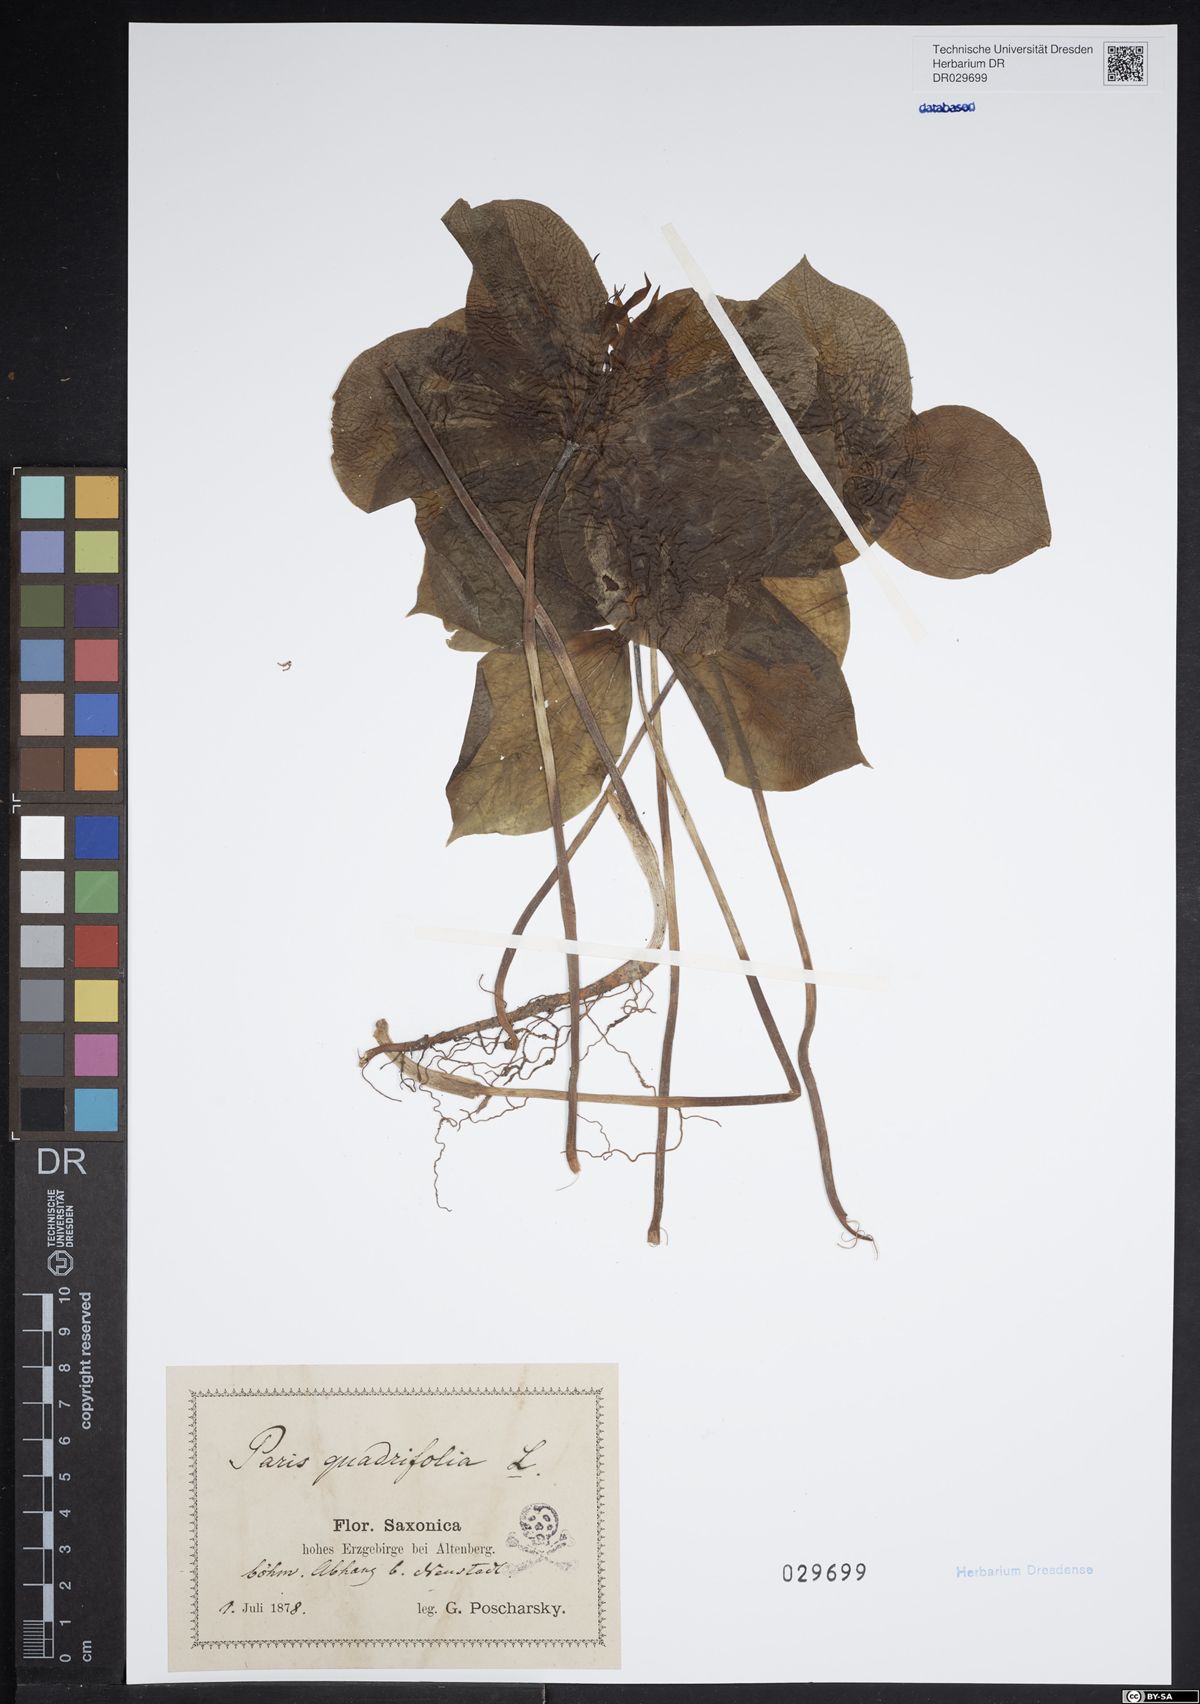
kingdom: Plantae
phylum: Tracheophyta
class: Liliopsida
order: Liliales
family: Melanthiaceae
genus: Paris
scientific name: Paris quadrifolia
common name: Herb-paris
